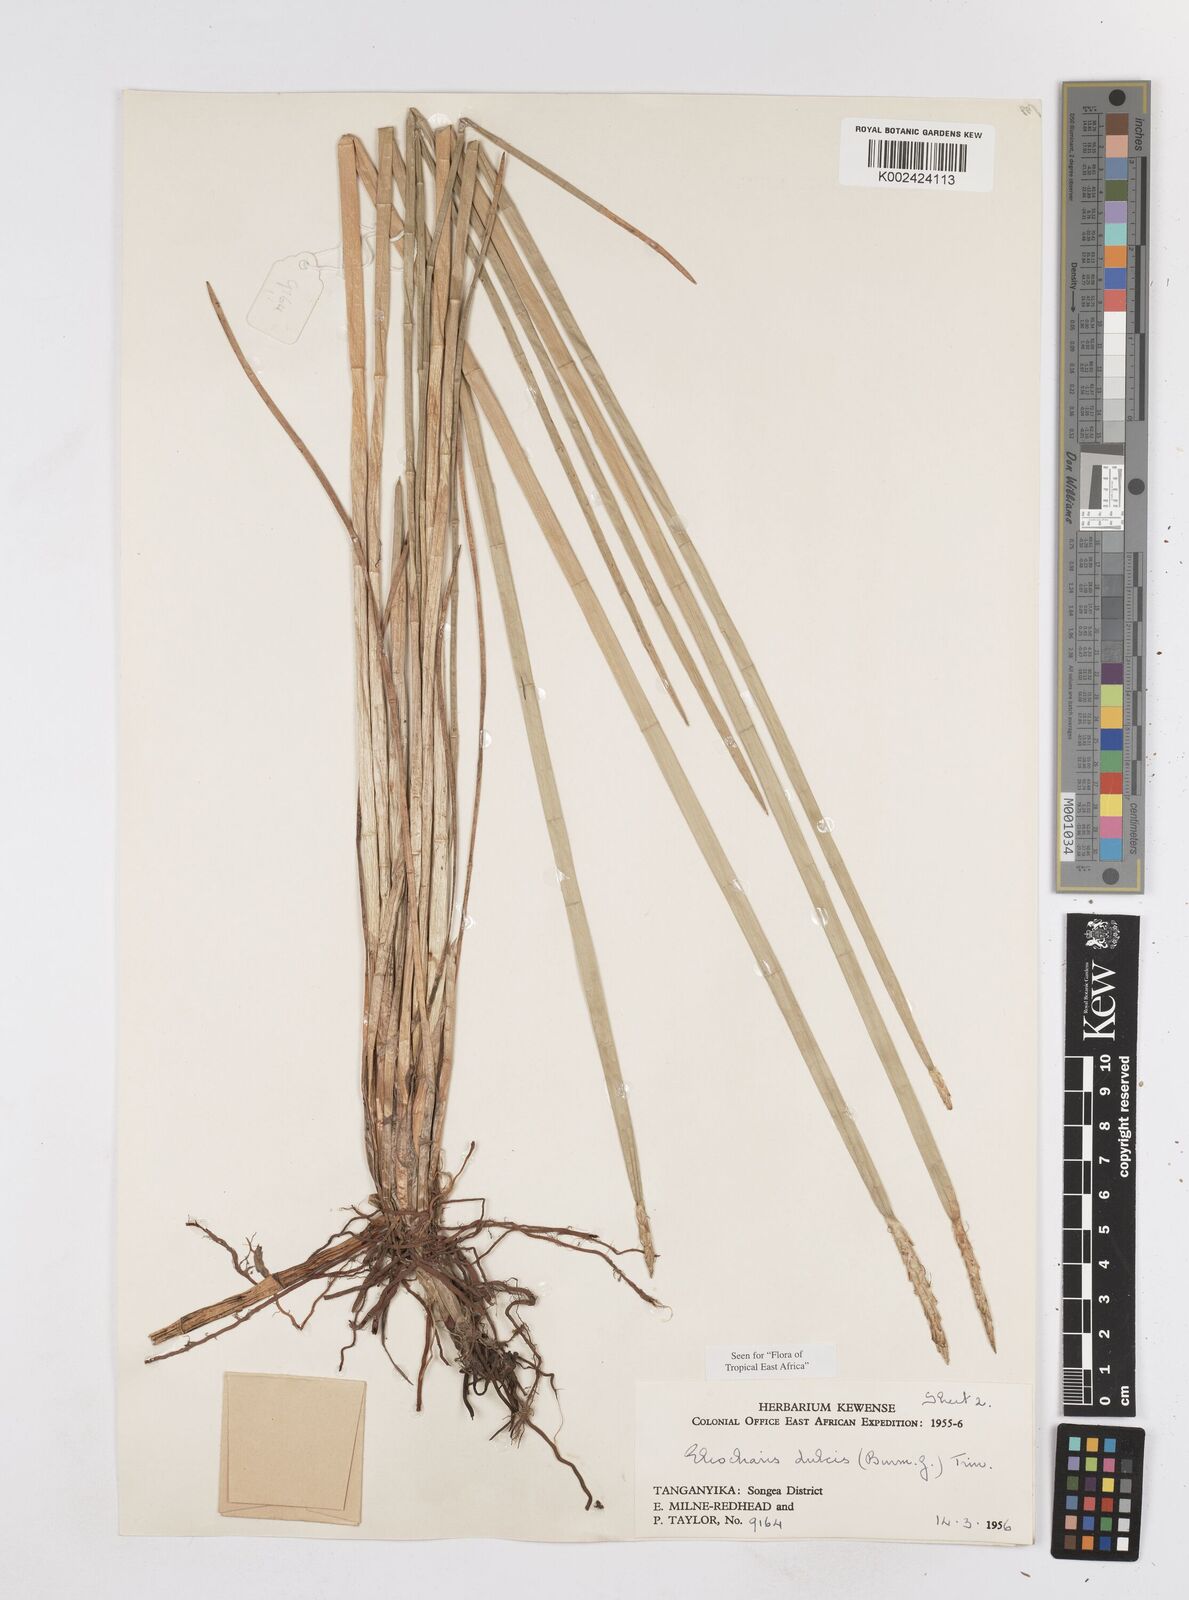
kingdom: Plantae
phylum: Tracheophyta
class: Liliopsida
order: Poales
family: Cyperaceae
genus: Eleocharis
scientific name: Eleocharis dulcis
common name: Chinese water chestnut
